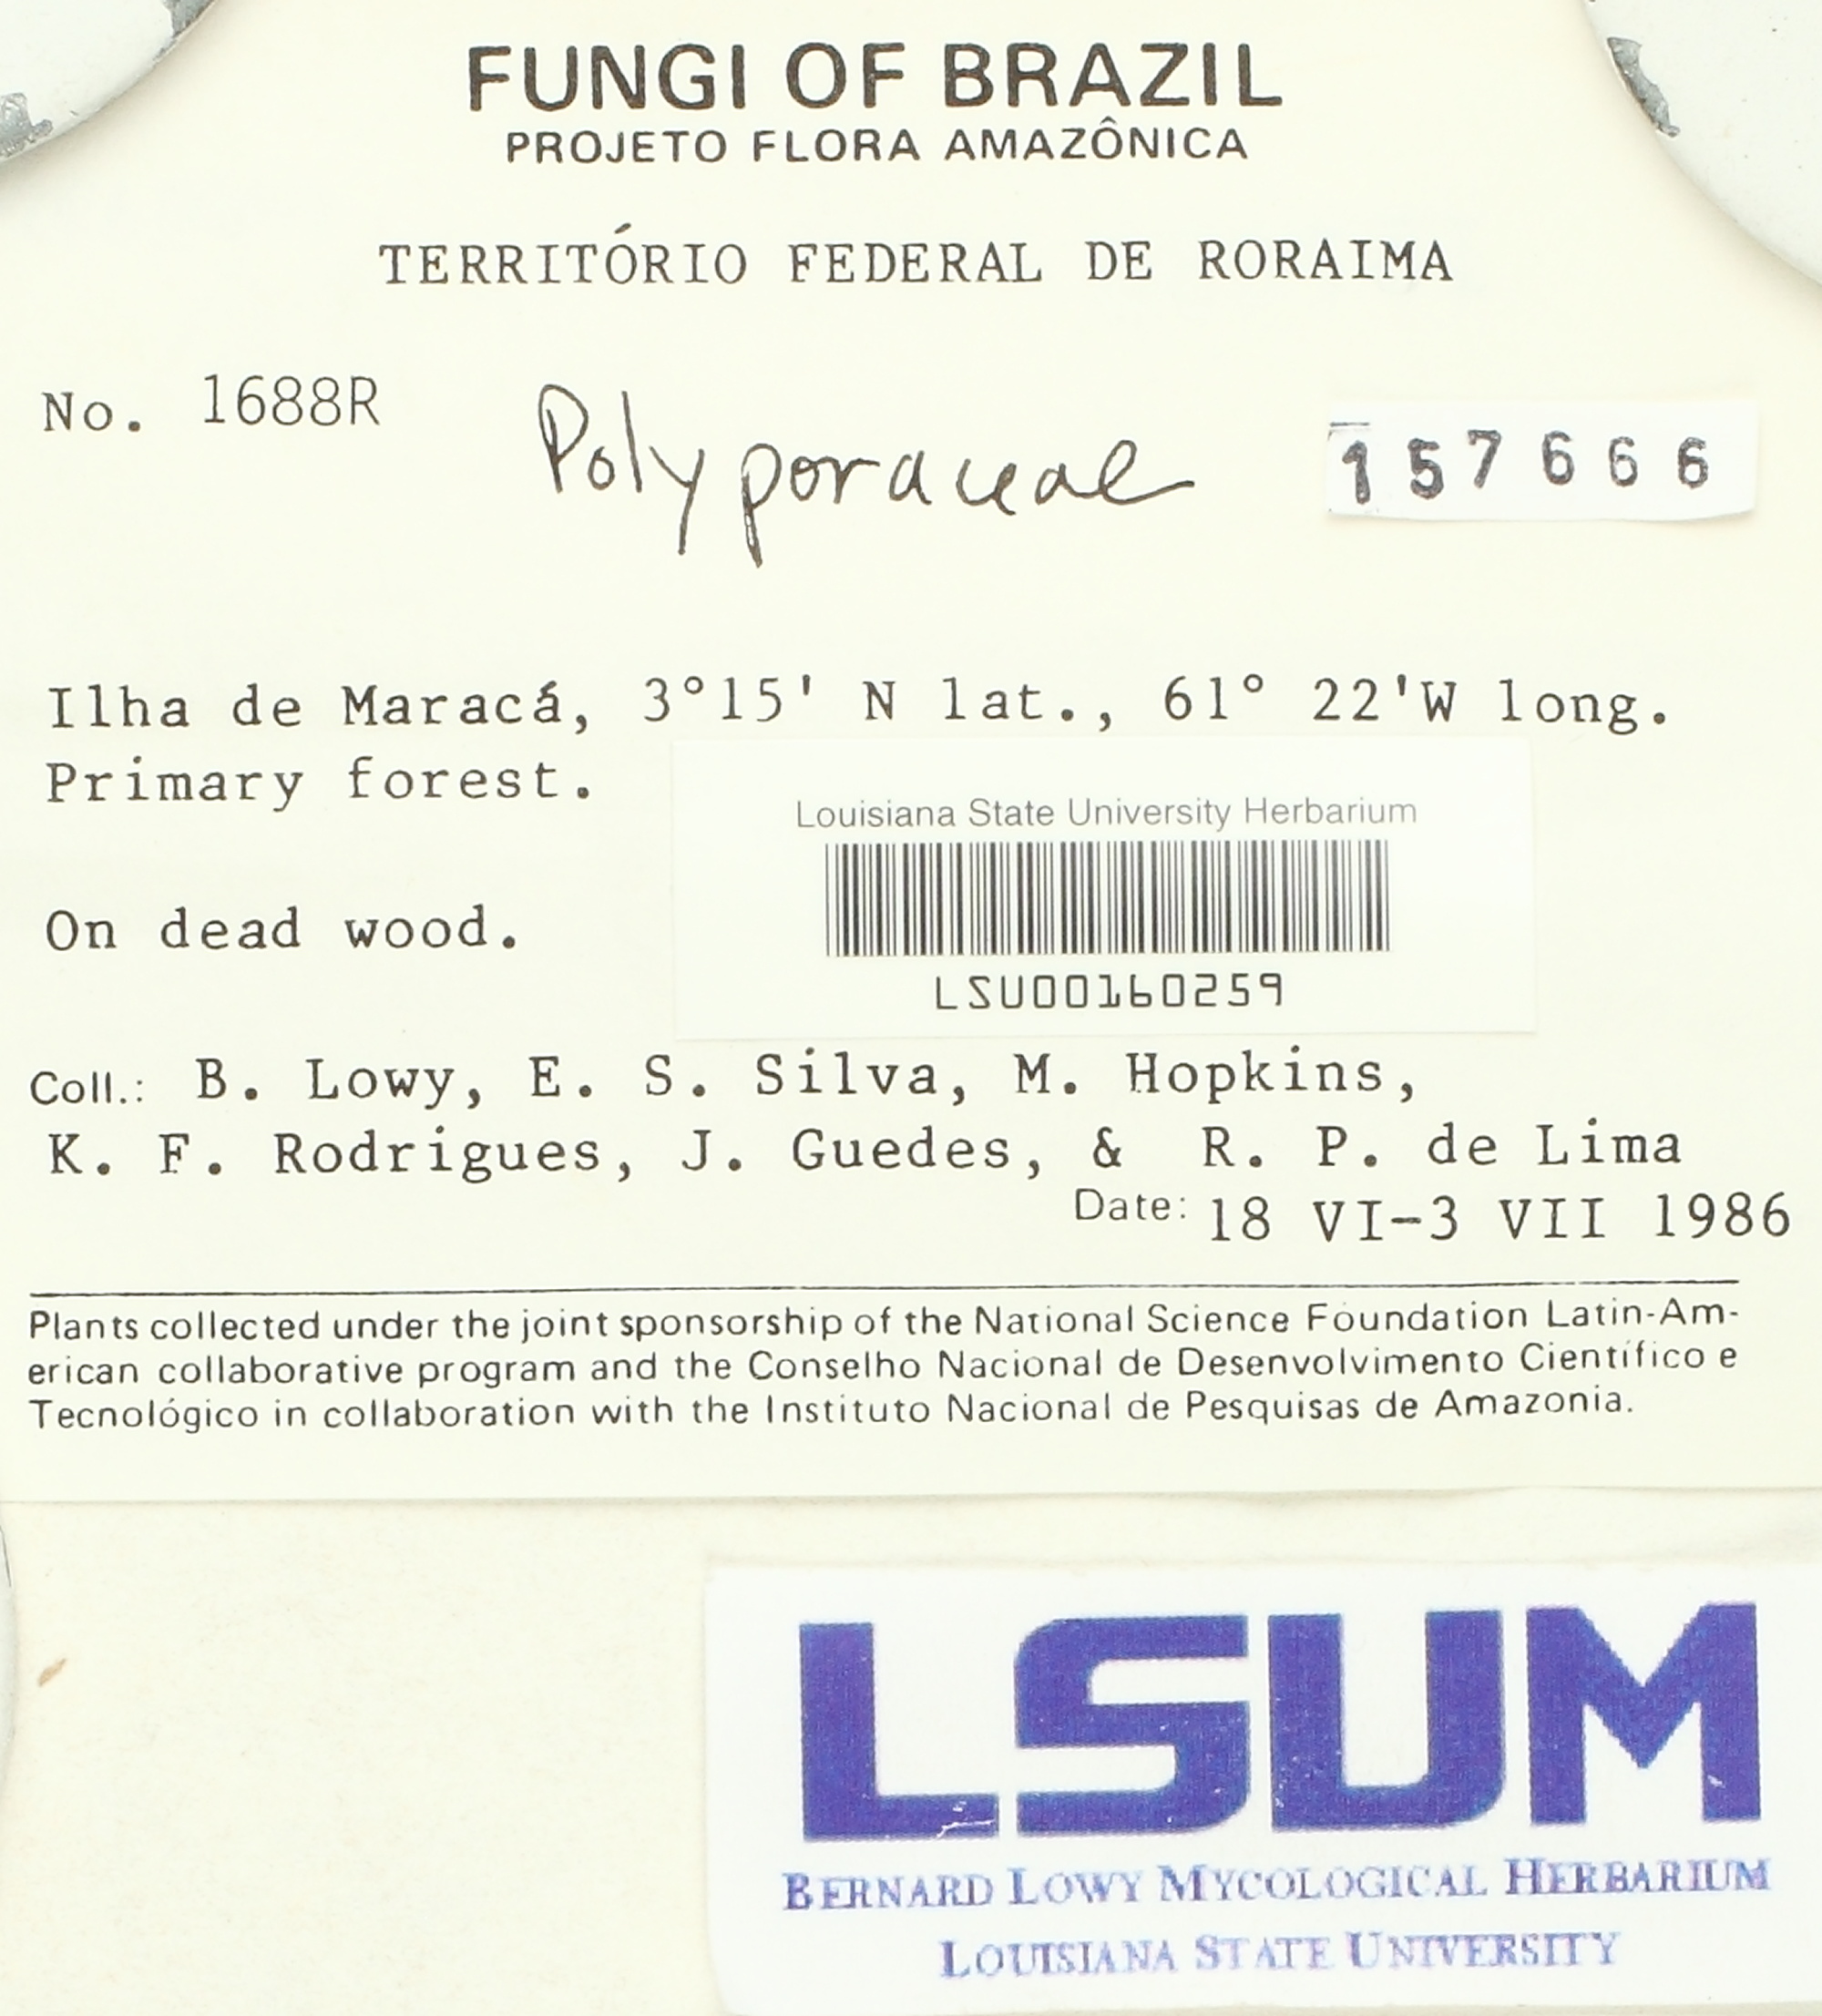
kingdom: Fungi
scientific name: Fungi
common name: Fungi
